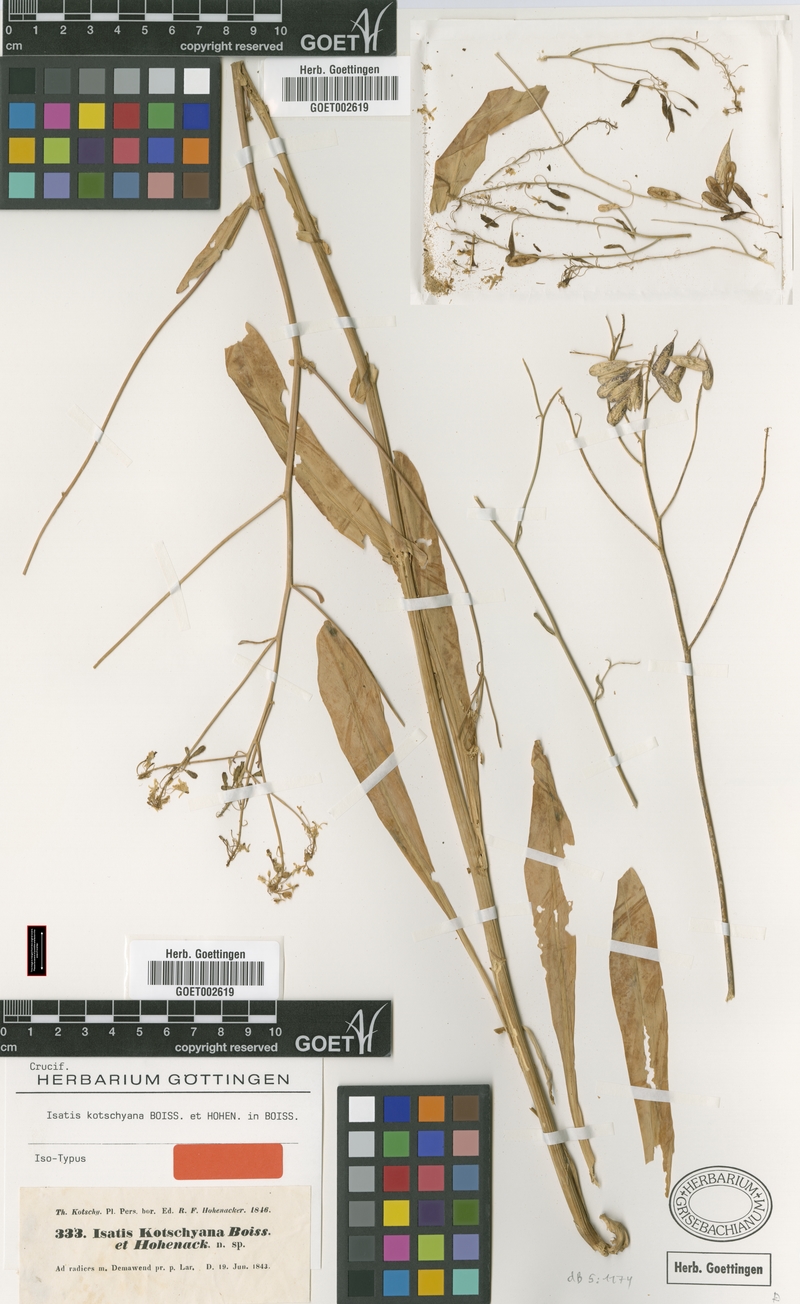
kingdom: Plantae
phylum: Tracheophyta
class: Magnoliopsida
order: Brassicales
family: Brassicaceae
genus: Isatis
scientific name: Isatis kotschyana
